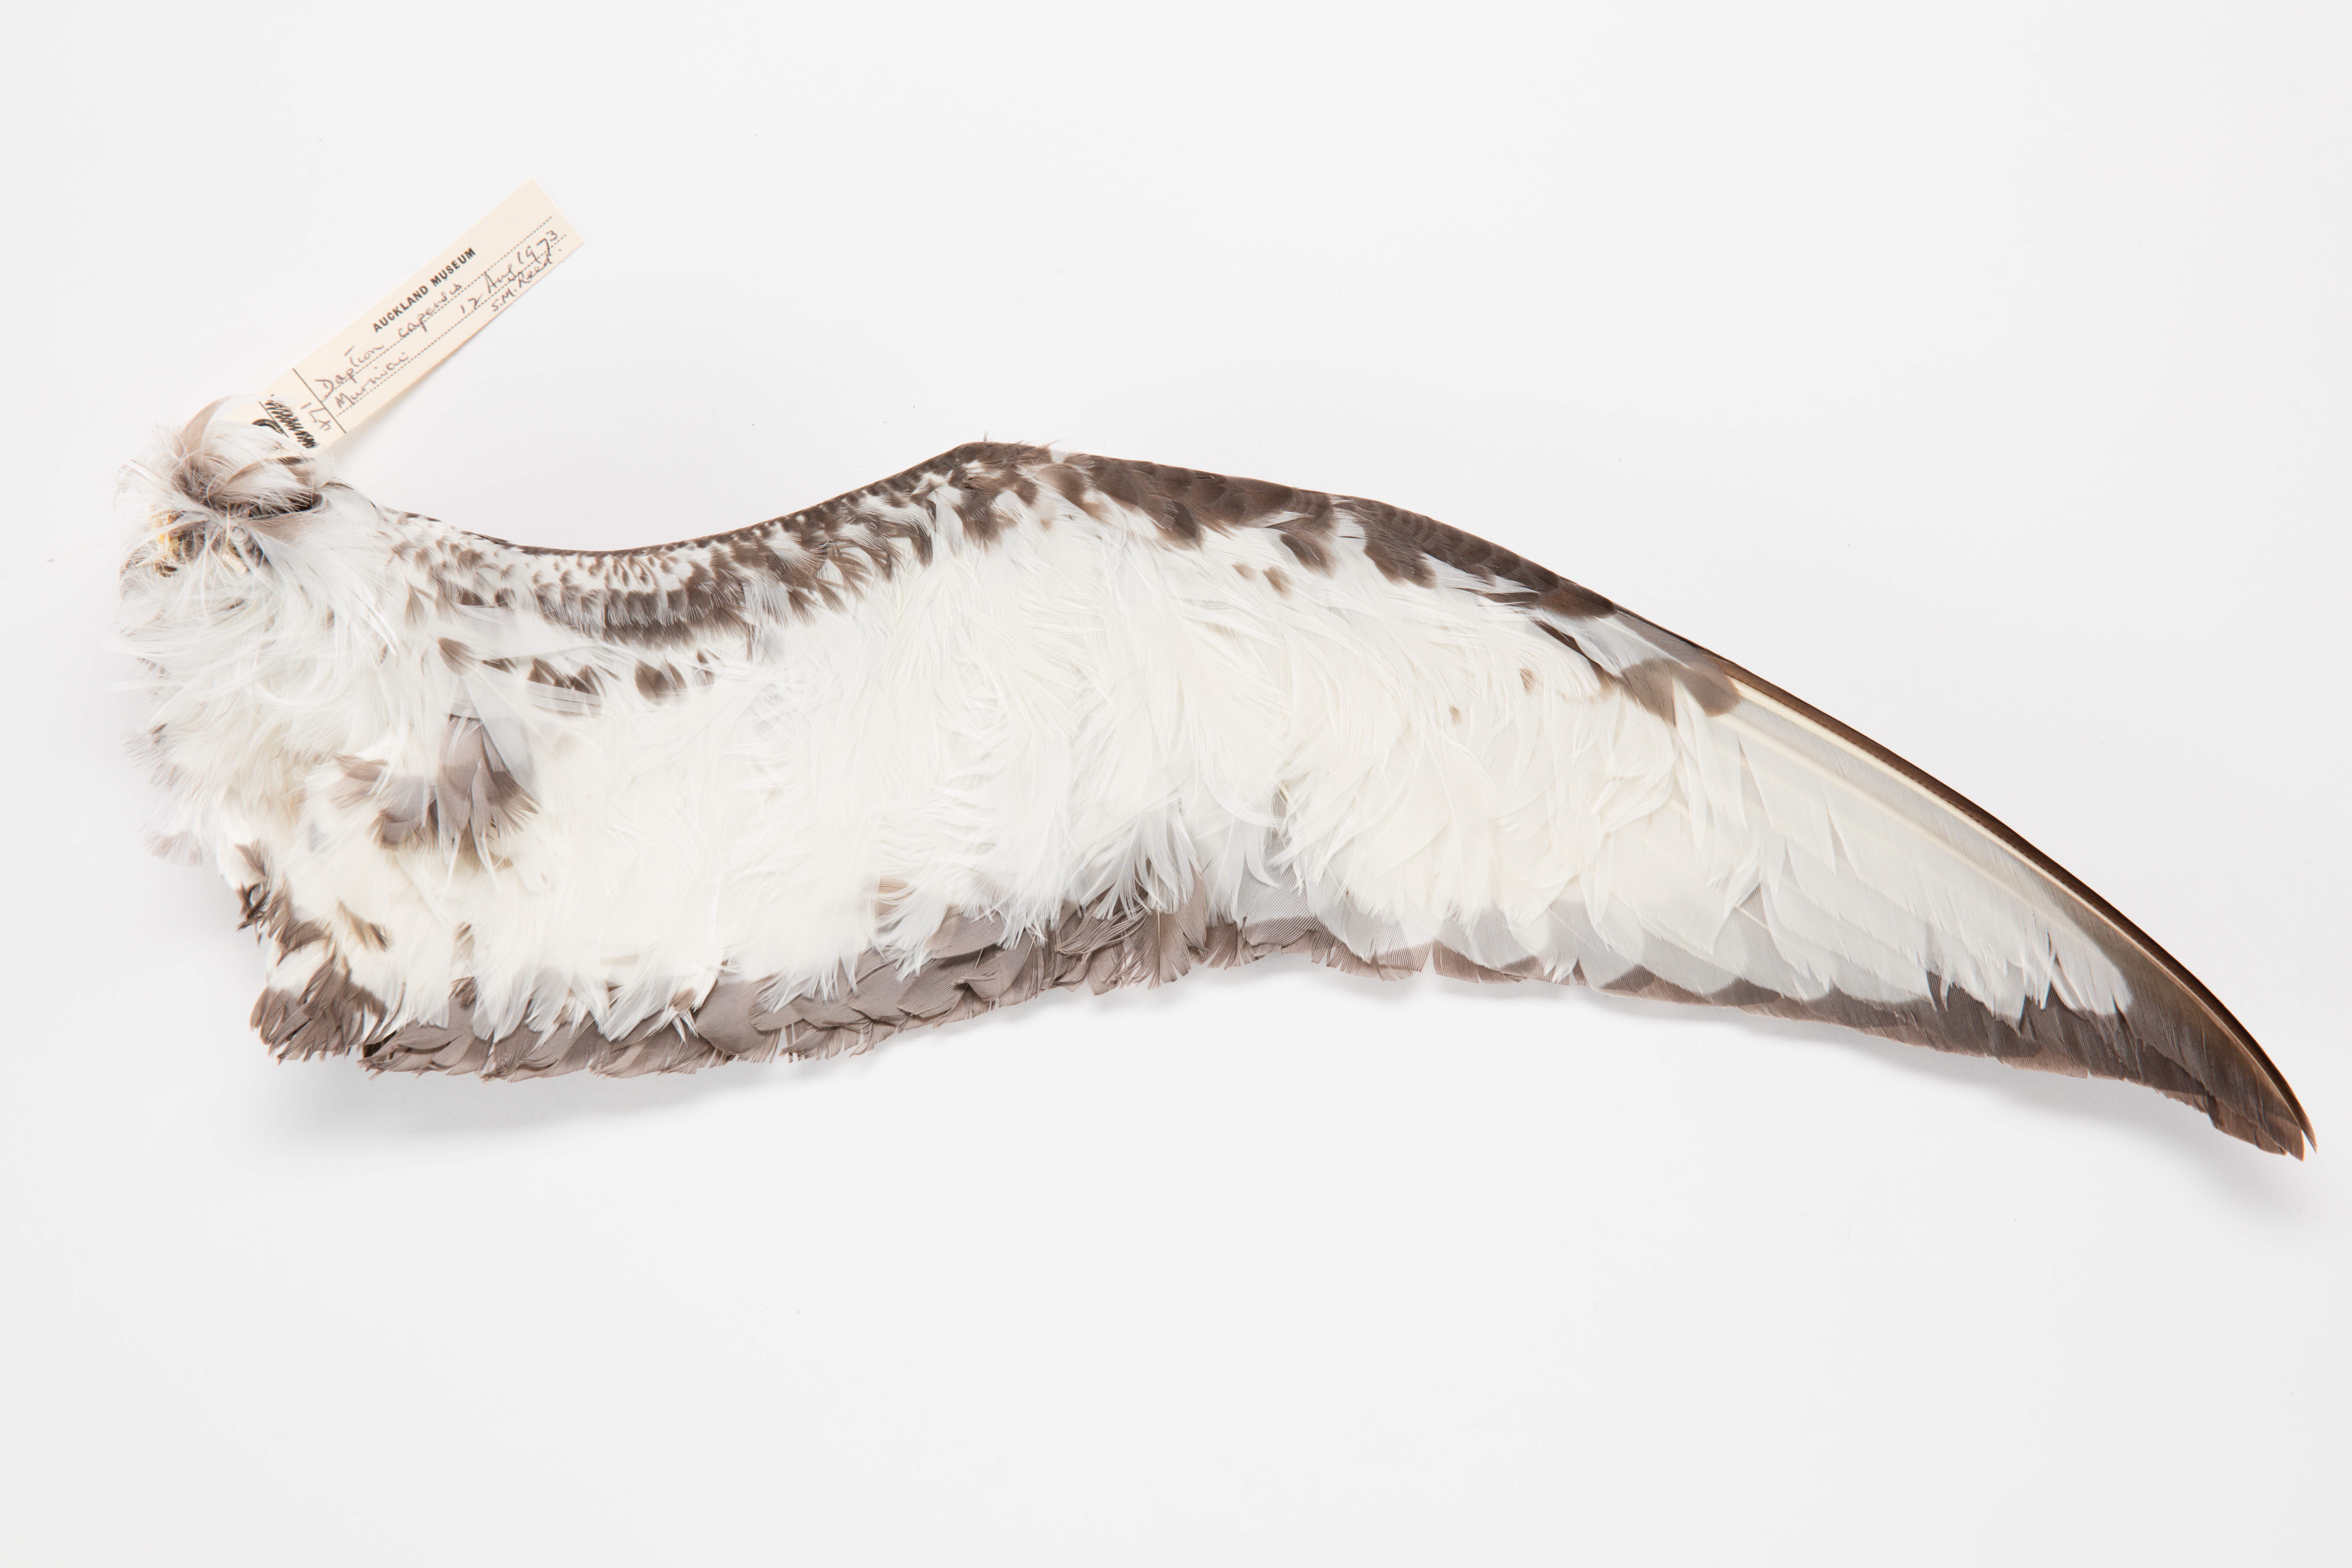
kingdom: Animalia
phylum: Chordata
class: Aves
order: Procellariiformes
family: Procellariidae
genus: Daption
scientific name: Daption capense
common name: Cape petrel
